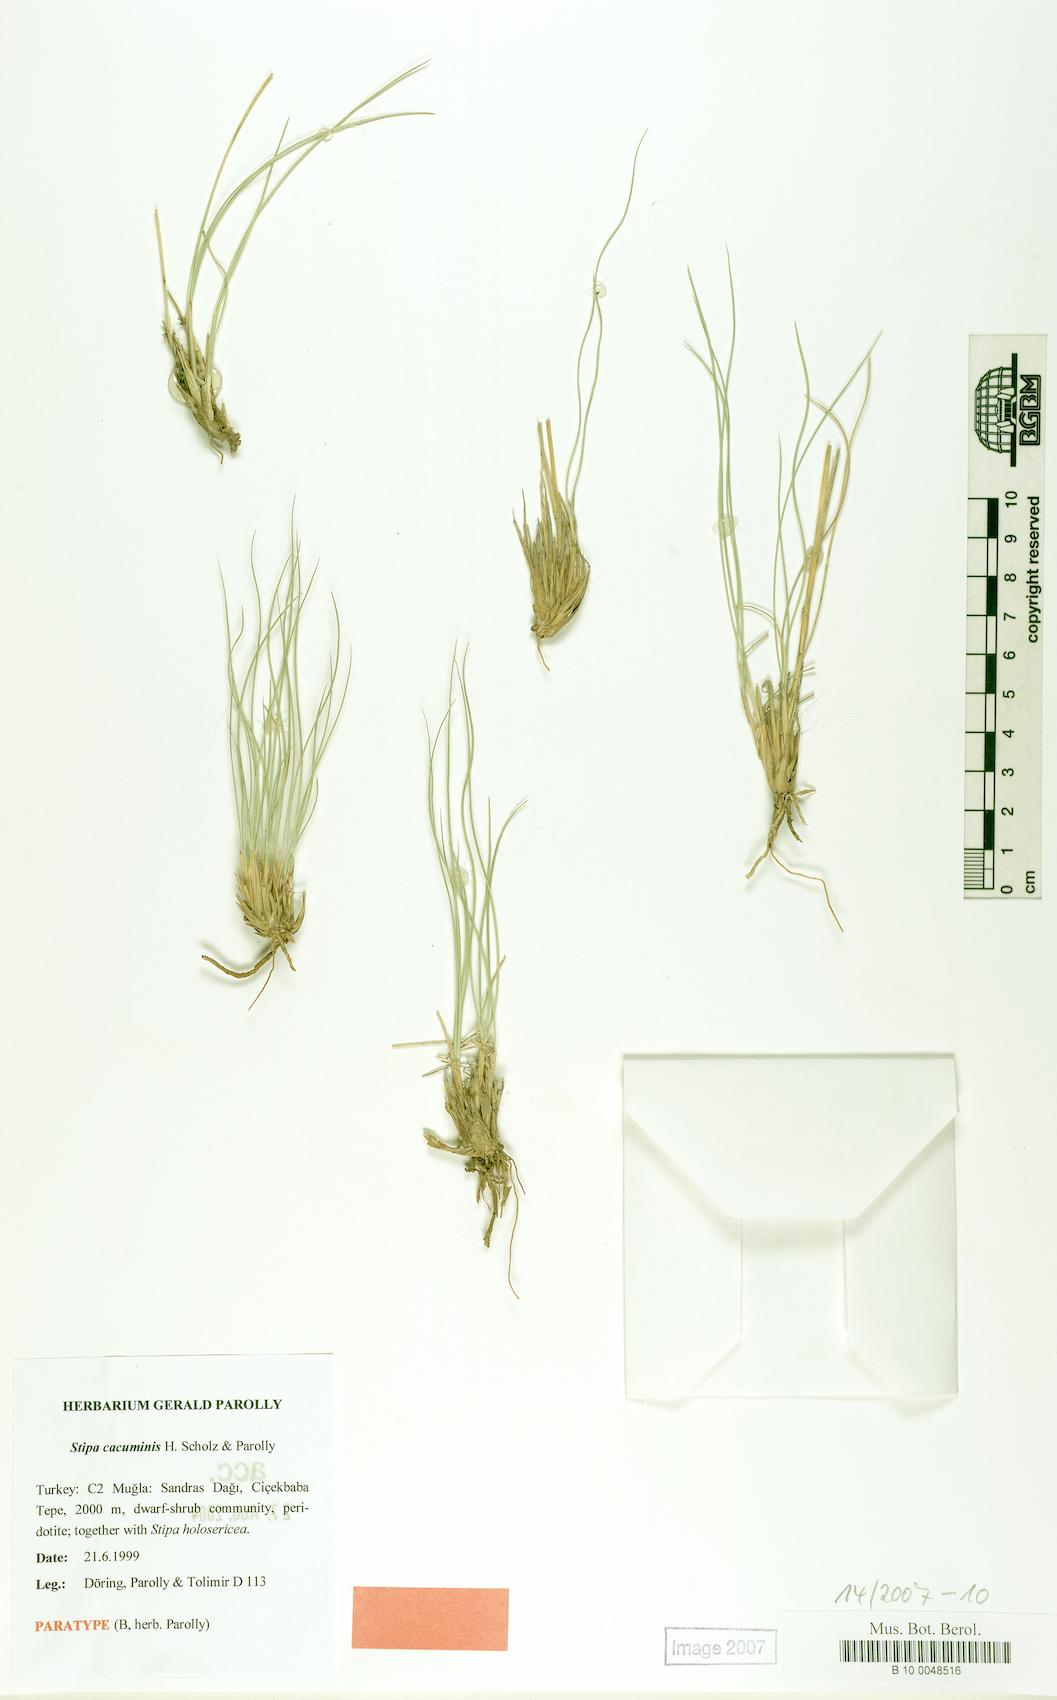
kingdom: Plantae
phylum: Tracheophyta
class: Liliopsida
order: Poales
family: Poaceae
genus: Stipa
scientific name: Stipa hohenackeriana
